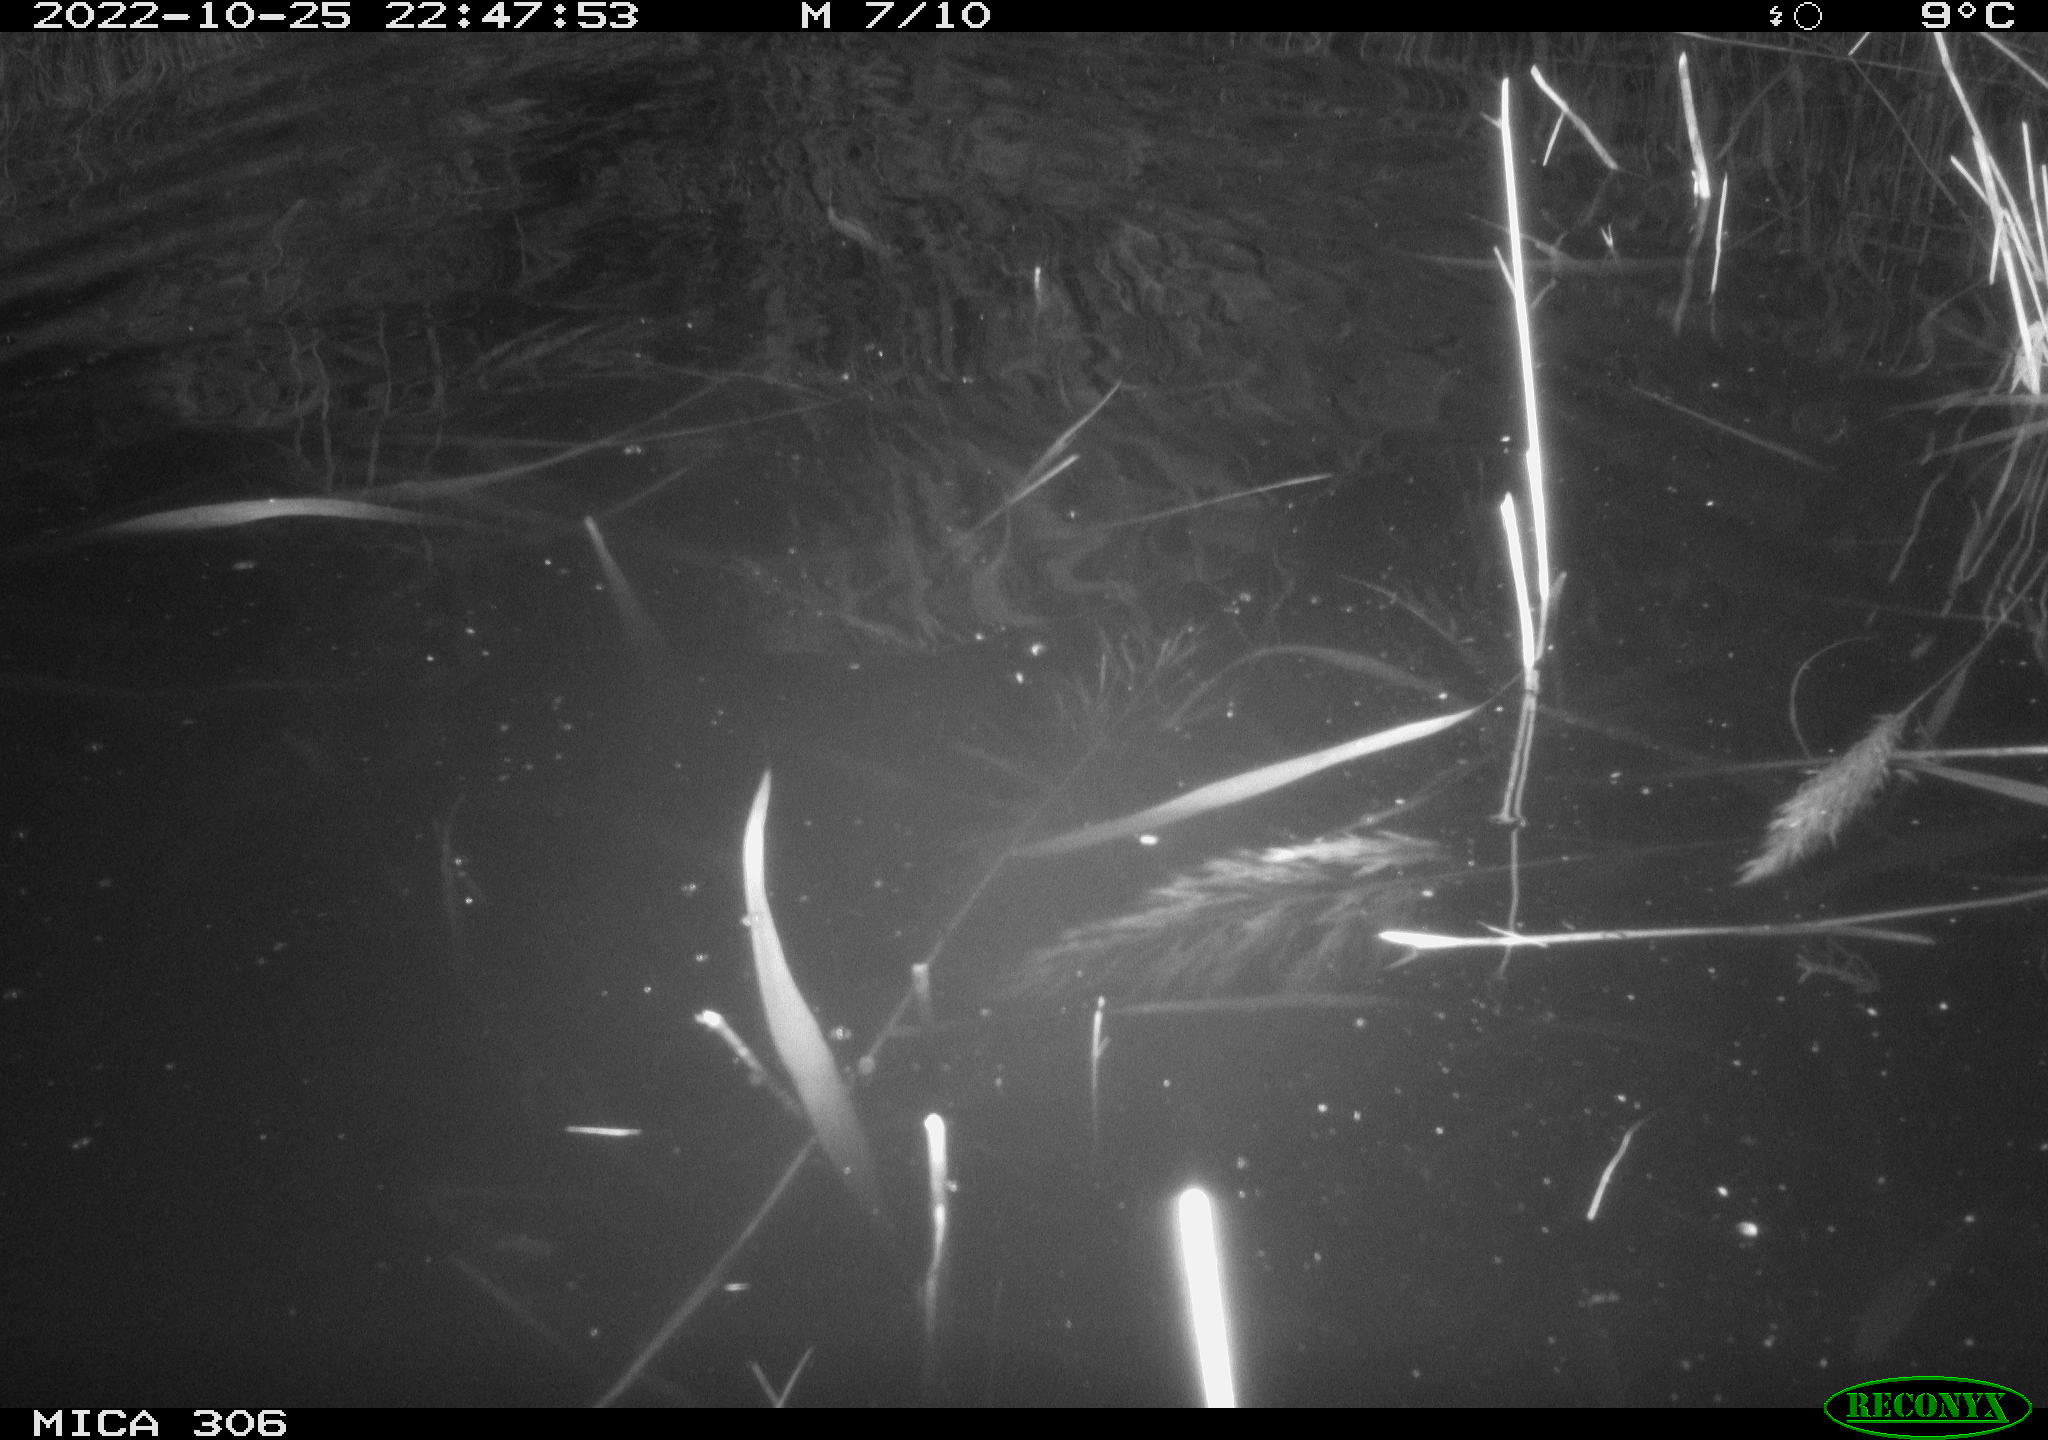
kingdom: Animalia
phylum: Chordata
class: Mammalia
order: Rodentia
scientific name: Rodentia
